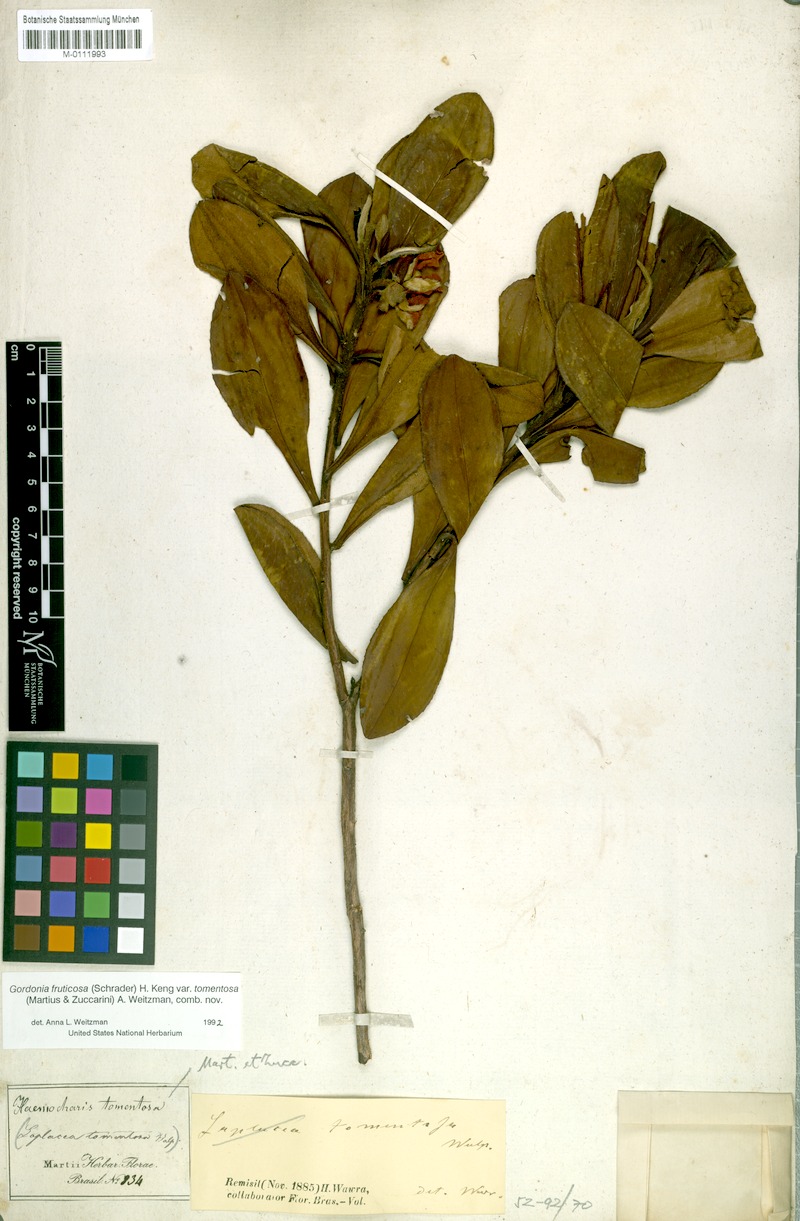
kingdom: Plantae
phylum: Tracheophyta
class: Magnoliopsida
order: Ericales
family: Theaceae
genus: Gordonia
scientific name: Gordonia tomentosa
